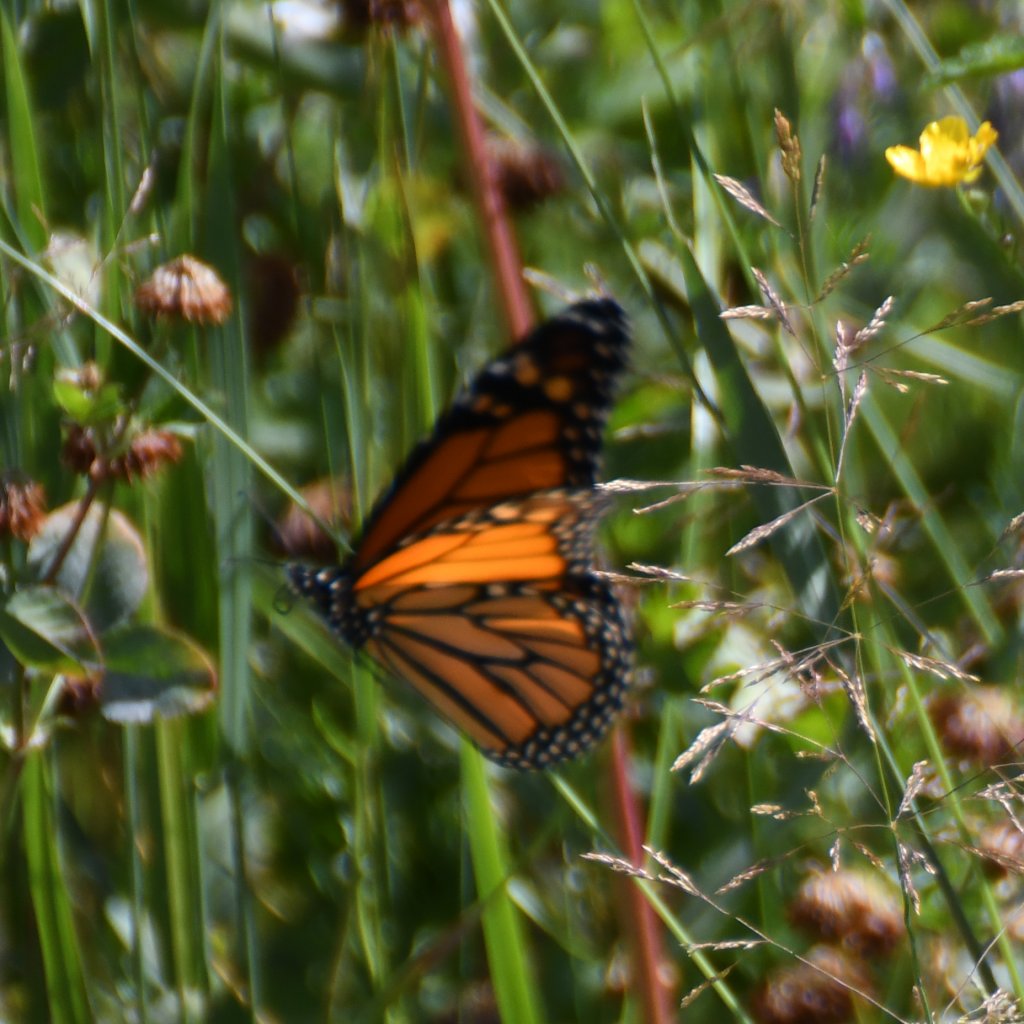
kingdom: Animalia
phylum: Arthropoda
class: Insecta
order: Lepidoptera
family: Nymphalidae
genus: Danaus
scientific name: Danaus plexippus
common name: Monarch
